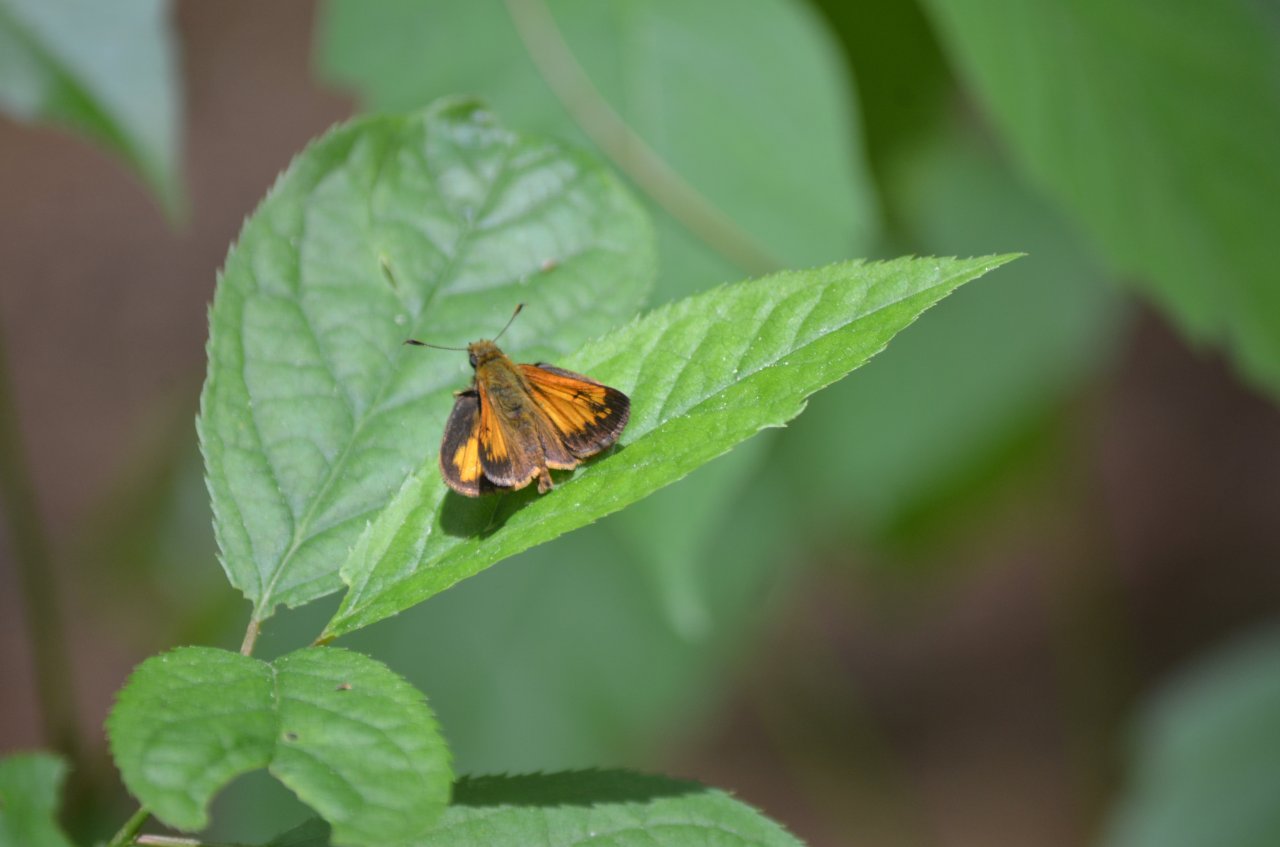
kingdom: Animalia
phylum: Arthropoda
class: Insecta
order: Lepidoptera
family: Hesperiidae
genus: Lon
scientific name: Lon hobomok
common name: Hobomok Skipper
